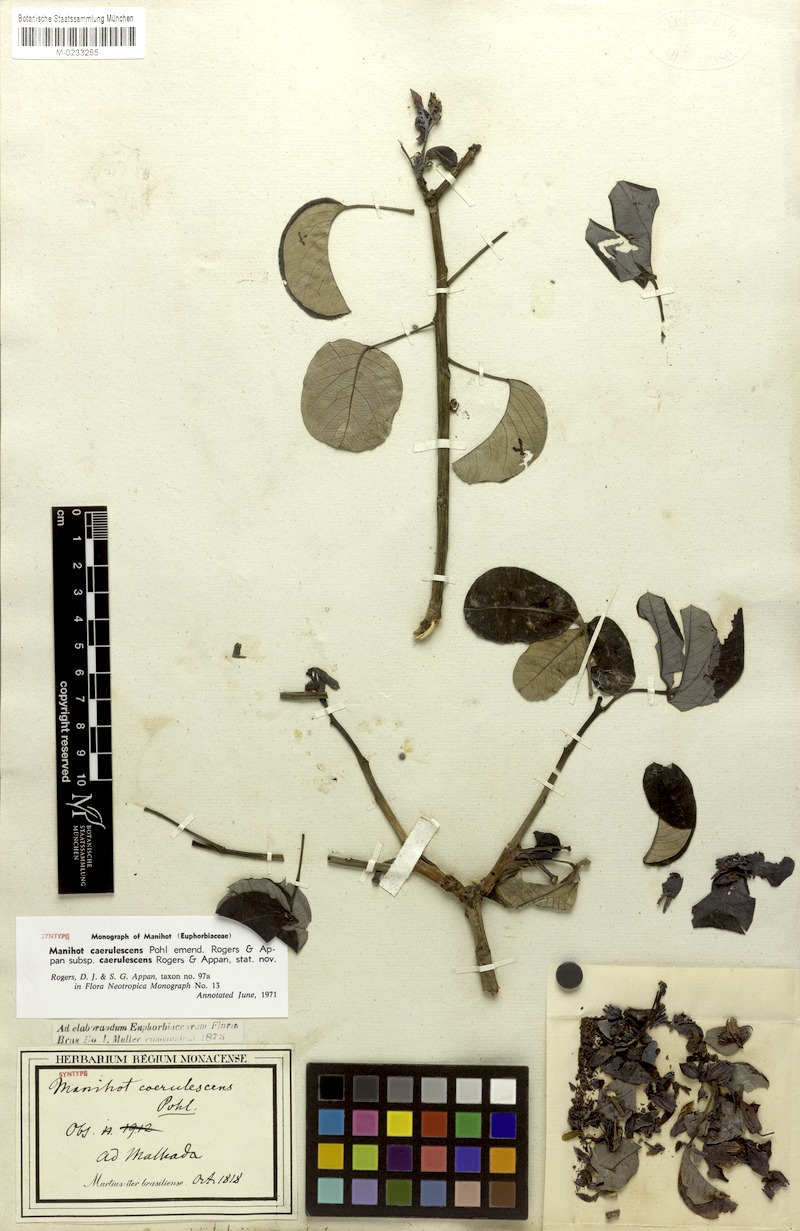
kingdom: Plantae
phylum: Tracheophyta
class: Magnoliopsida
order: Malpighiales
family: Euphorbiaceae
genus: Manihot
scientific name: Manihot caerulescens
